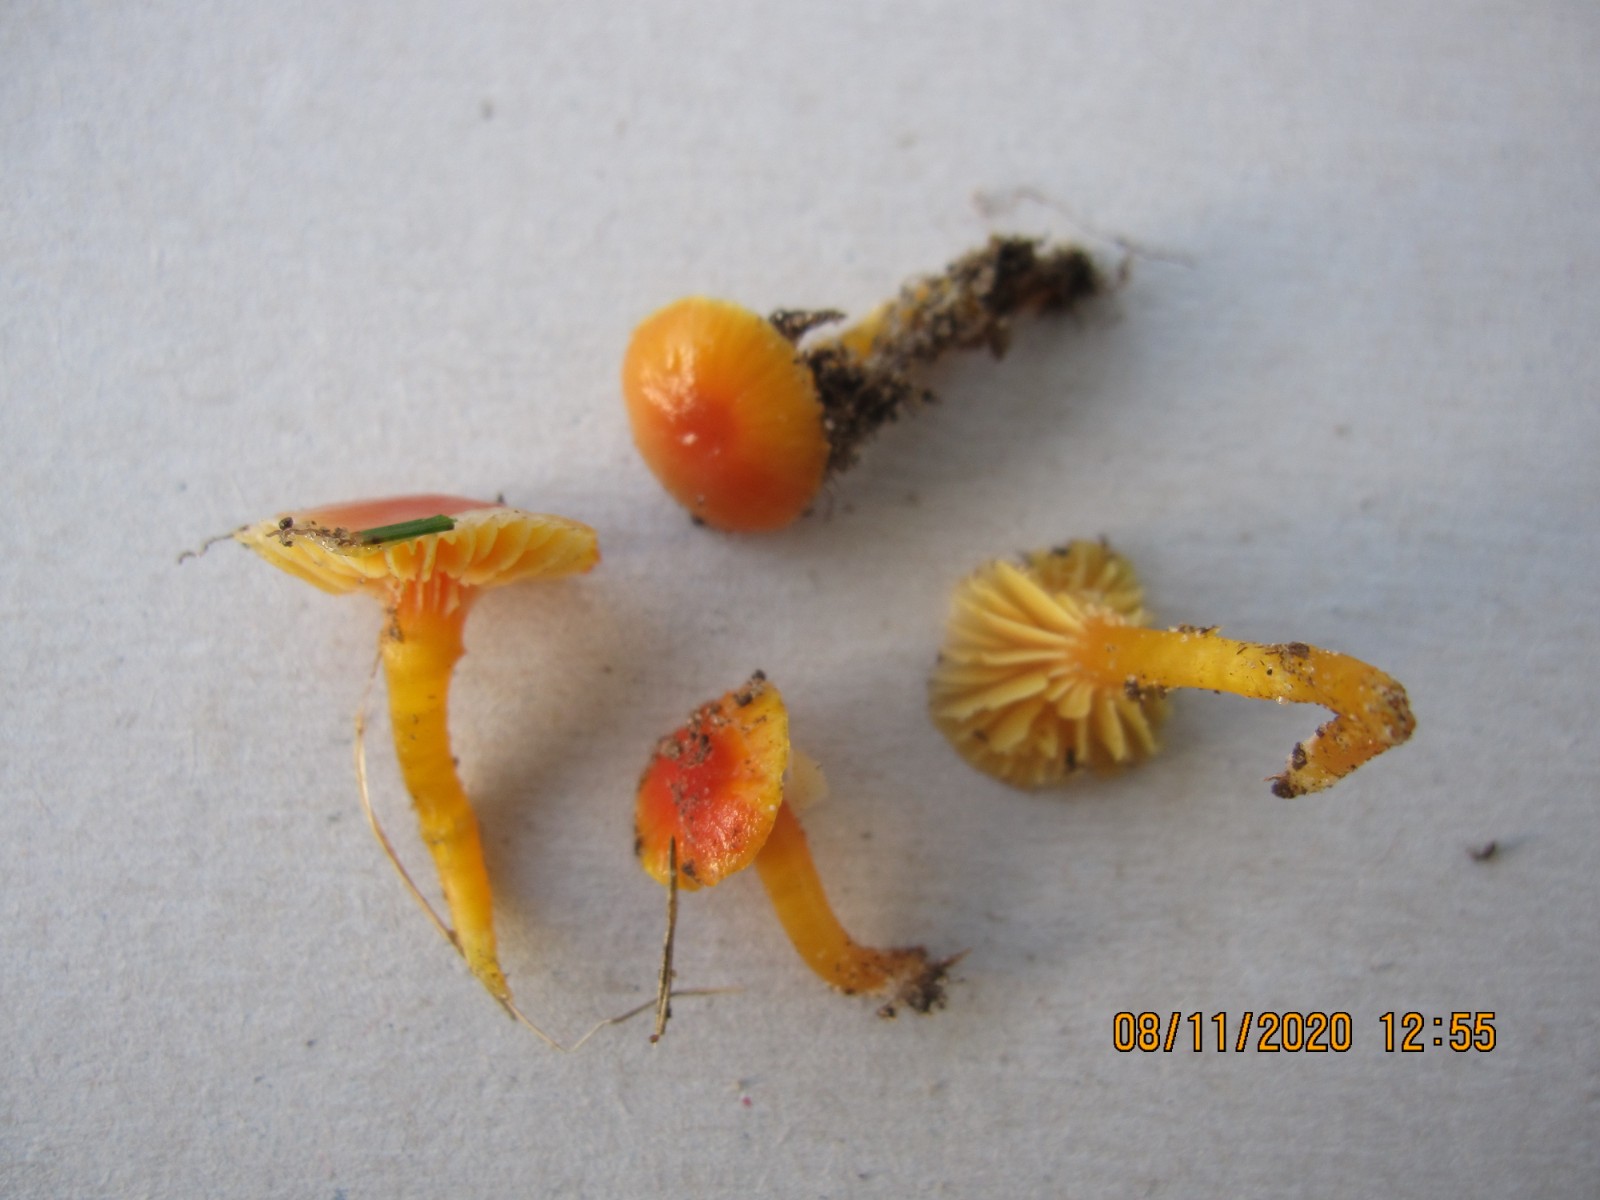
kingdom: Fungi
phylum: Basidiomycota
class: Agaricomycetes
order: Agaricales
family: Hygrophoraceae
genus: Hygrocybe
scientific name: Hygrocybe insipida
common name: liden vokshat
